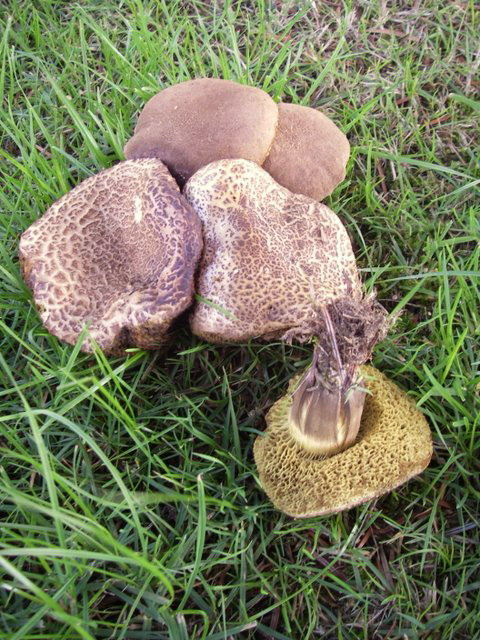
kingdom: Fungi
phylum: Basidiomycota
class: Agaricomycetes
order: Boletales
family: Boletaceae
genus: Xerocomellus
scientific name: Xerocomellus porosporus
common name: hvidsprukken rørhat
